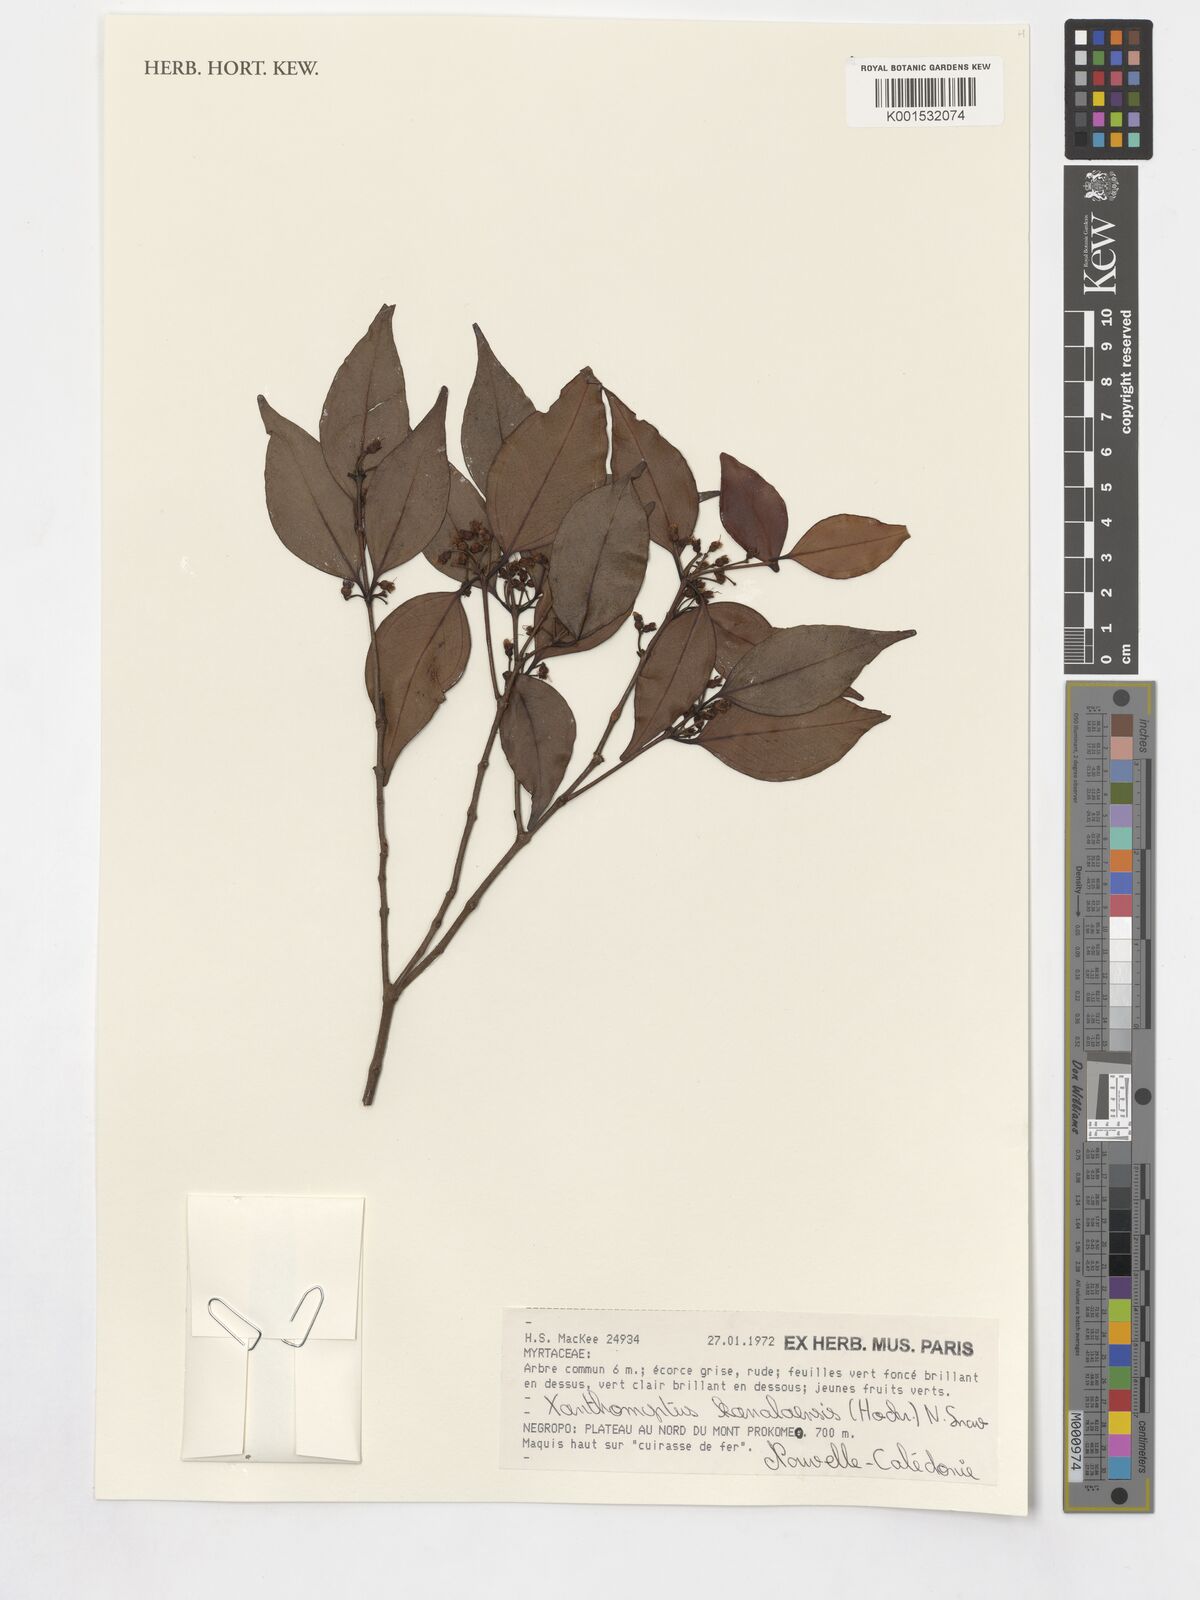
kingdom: Plantae
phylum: Tracheophyta
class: Magnoliopsida
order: Myrtales
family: Myrtaceae
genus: Xanthomyrtus
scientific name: Xanthomyrtus kanalaensis
